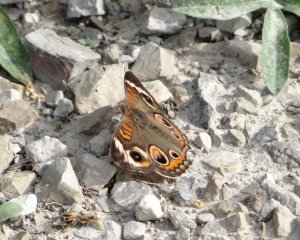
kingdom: Animalia
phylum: Arthropoda
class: Insecta
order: Lepidoptera
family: Nymphalidae
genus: Junonia
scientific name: Junonia coenia
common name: Common Buckeye
